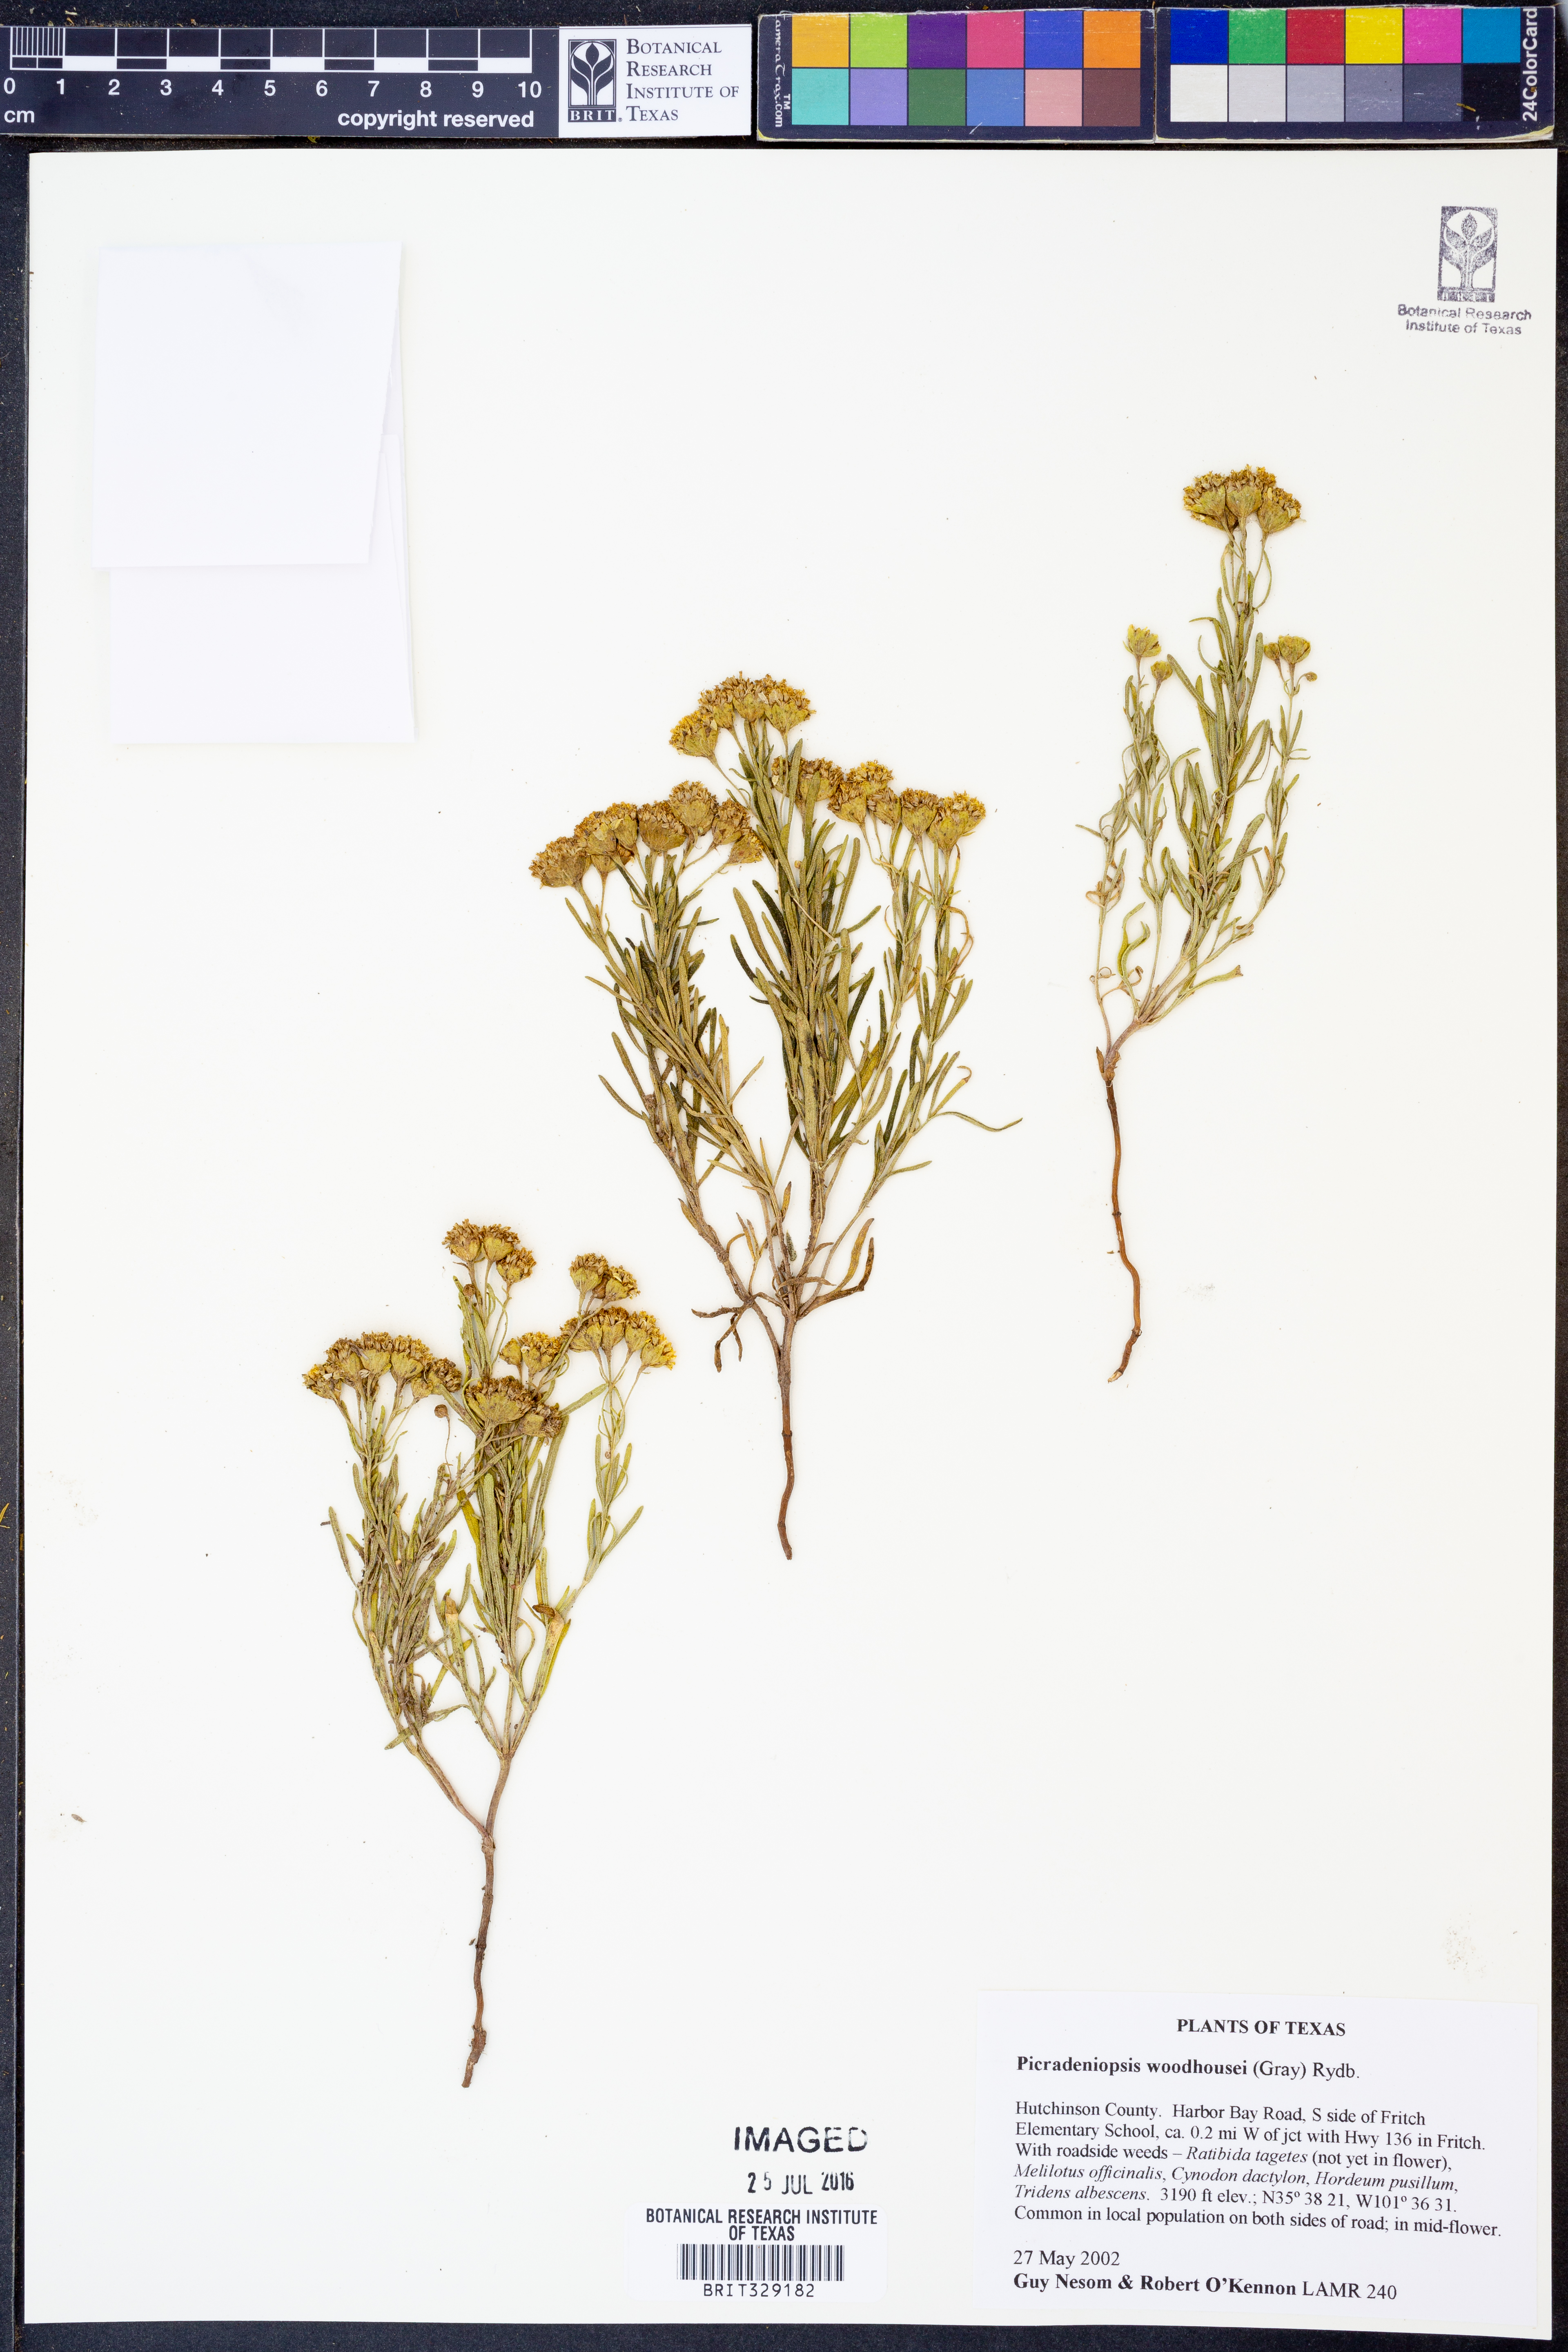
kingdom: Plantae
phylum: Tracheophyta
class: Magnoliopsida
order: Asterales
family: Asteraceae
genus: Picradeniopsis
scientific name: Picradeniopsis woodhousei
